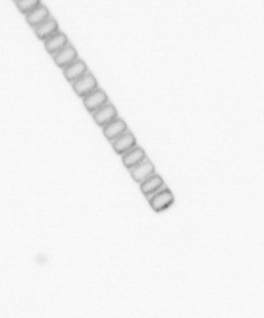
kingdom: Chromista
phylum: Ochrophyta
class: Bacillariophyceae
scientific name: Bacillariophyceae
